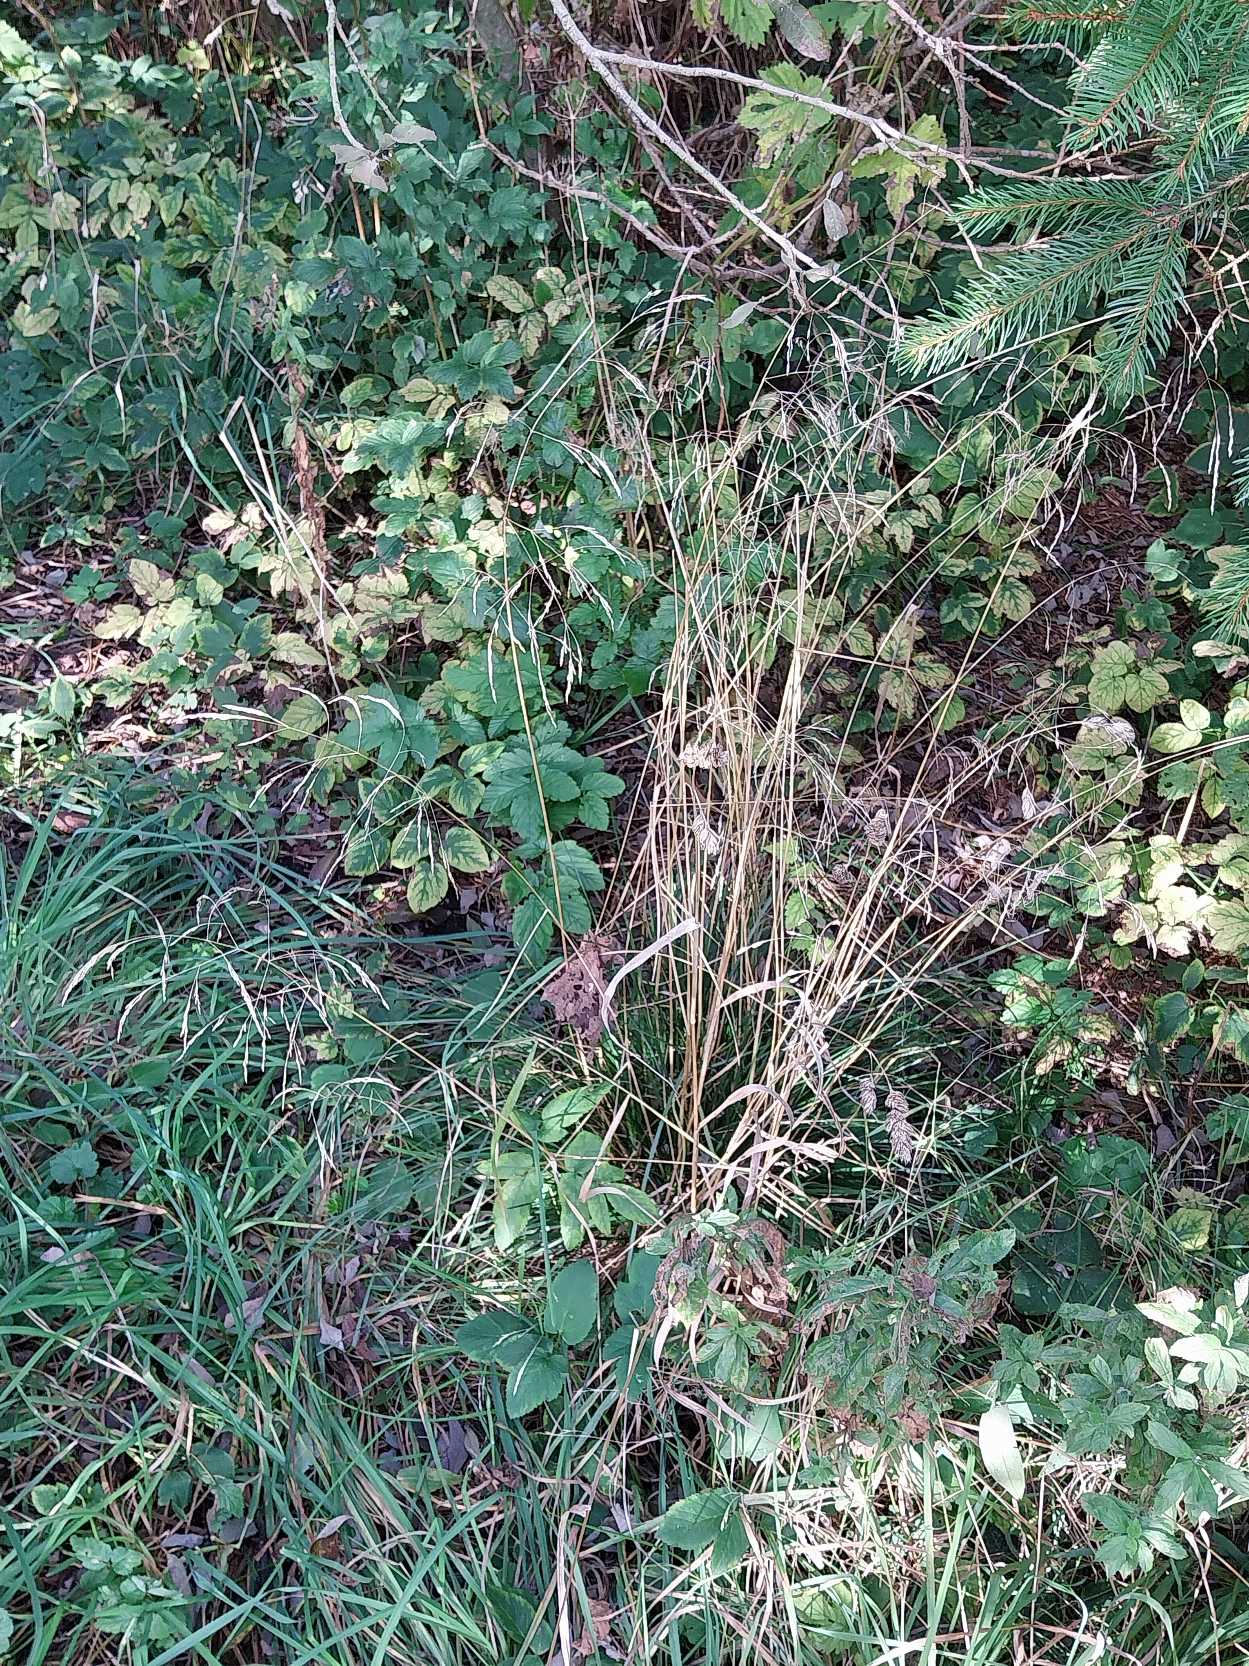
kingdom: Plantae
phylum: Tracheophyta
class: Liliopsida
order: Poales
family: Poaceae
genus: Deschampsia
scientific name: Deschampsia cespitosa
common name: Mose-bunke
